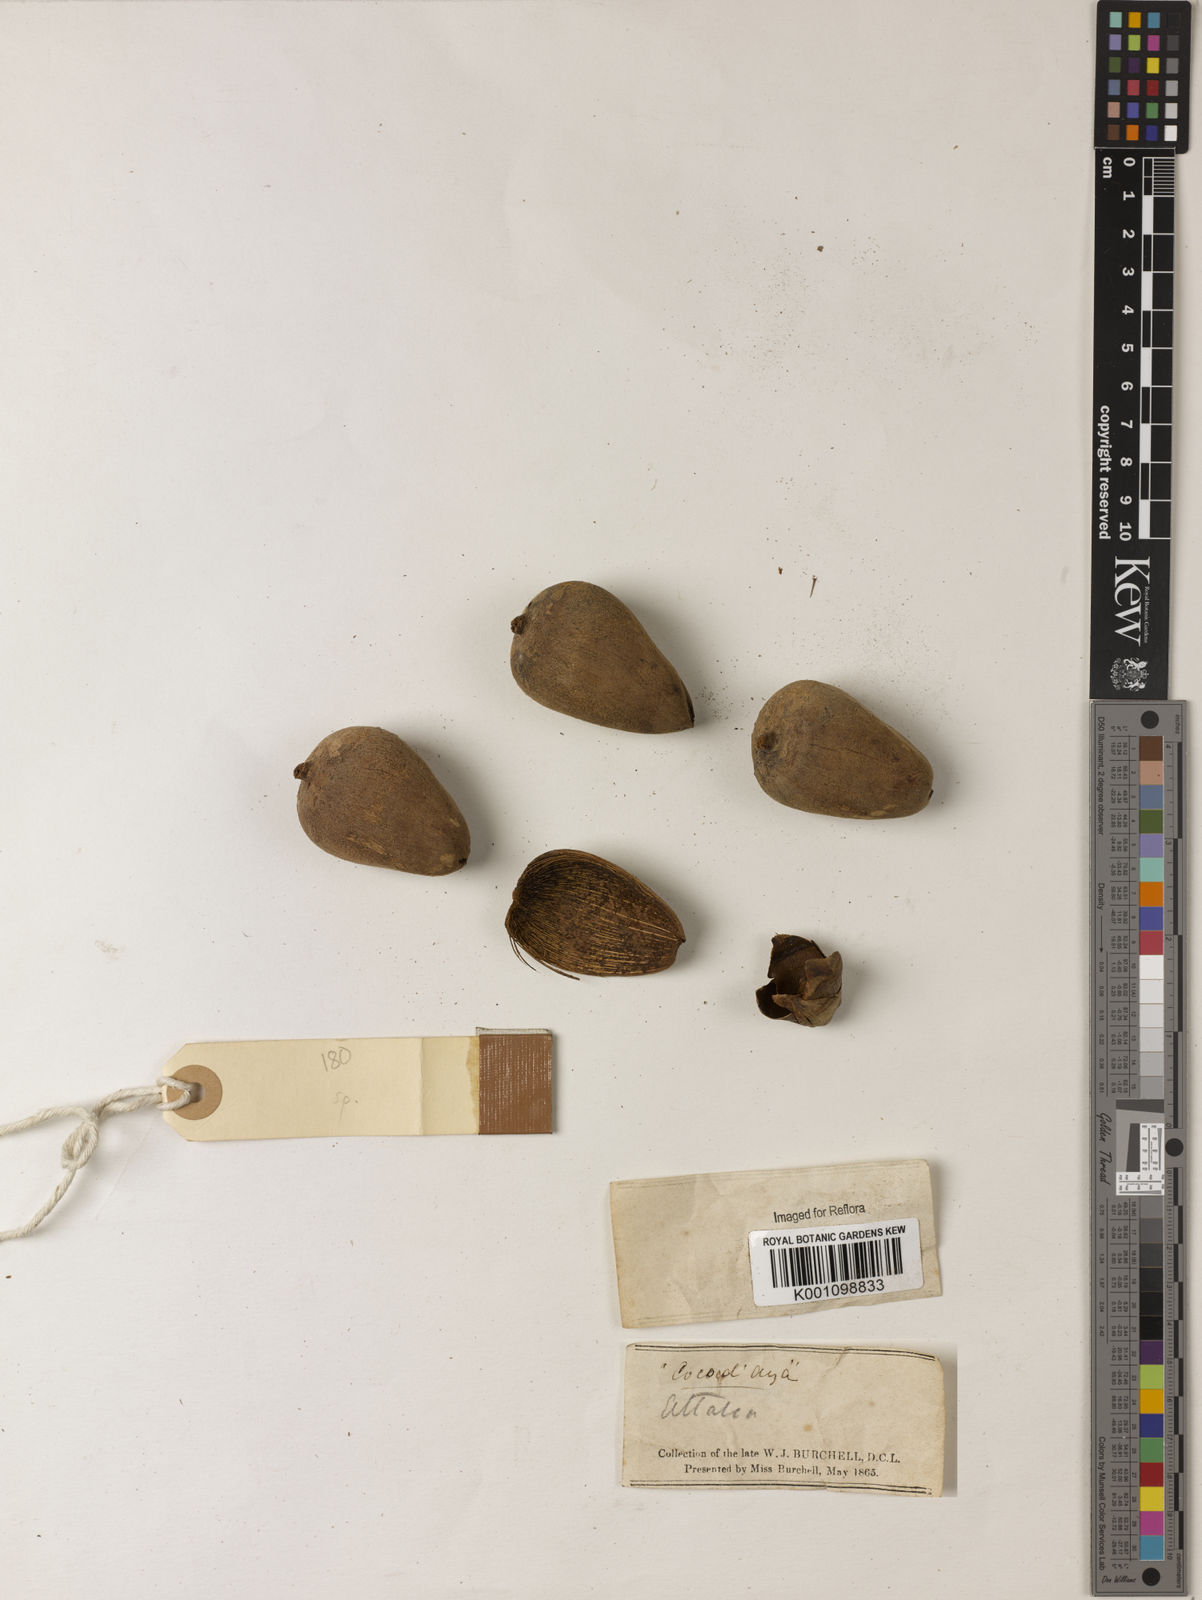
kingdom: Plantae
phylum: Tracheophyta
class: Liliopsida
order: Arecales
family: Arecaceae
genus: Attalea
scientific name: Attalea
